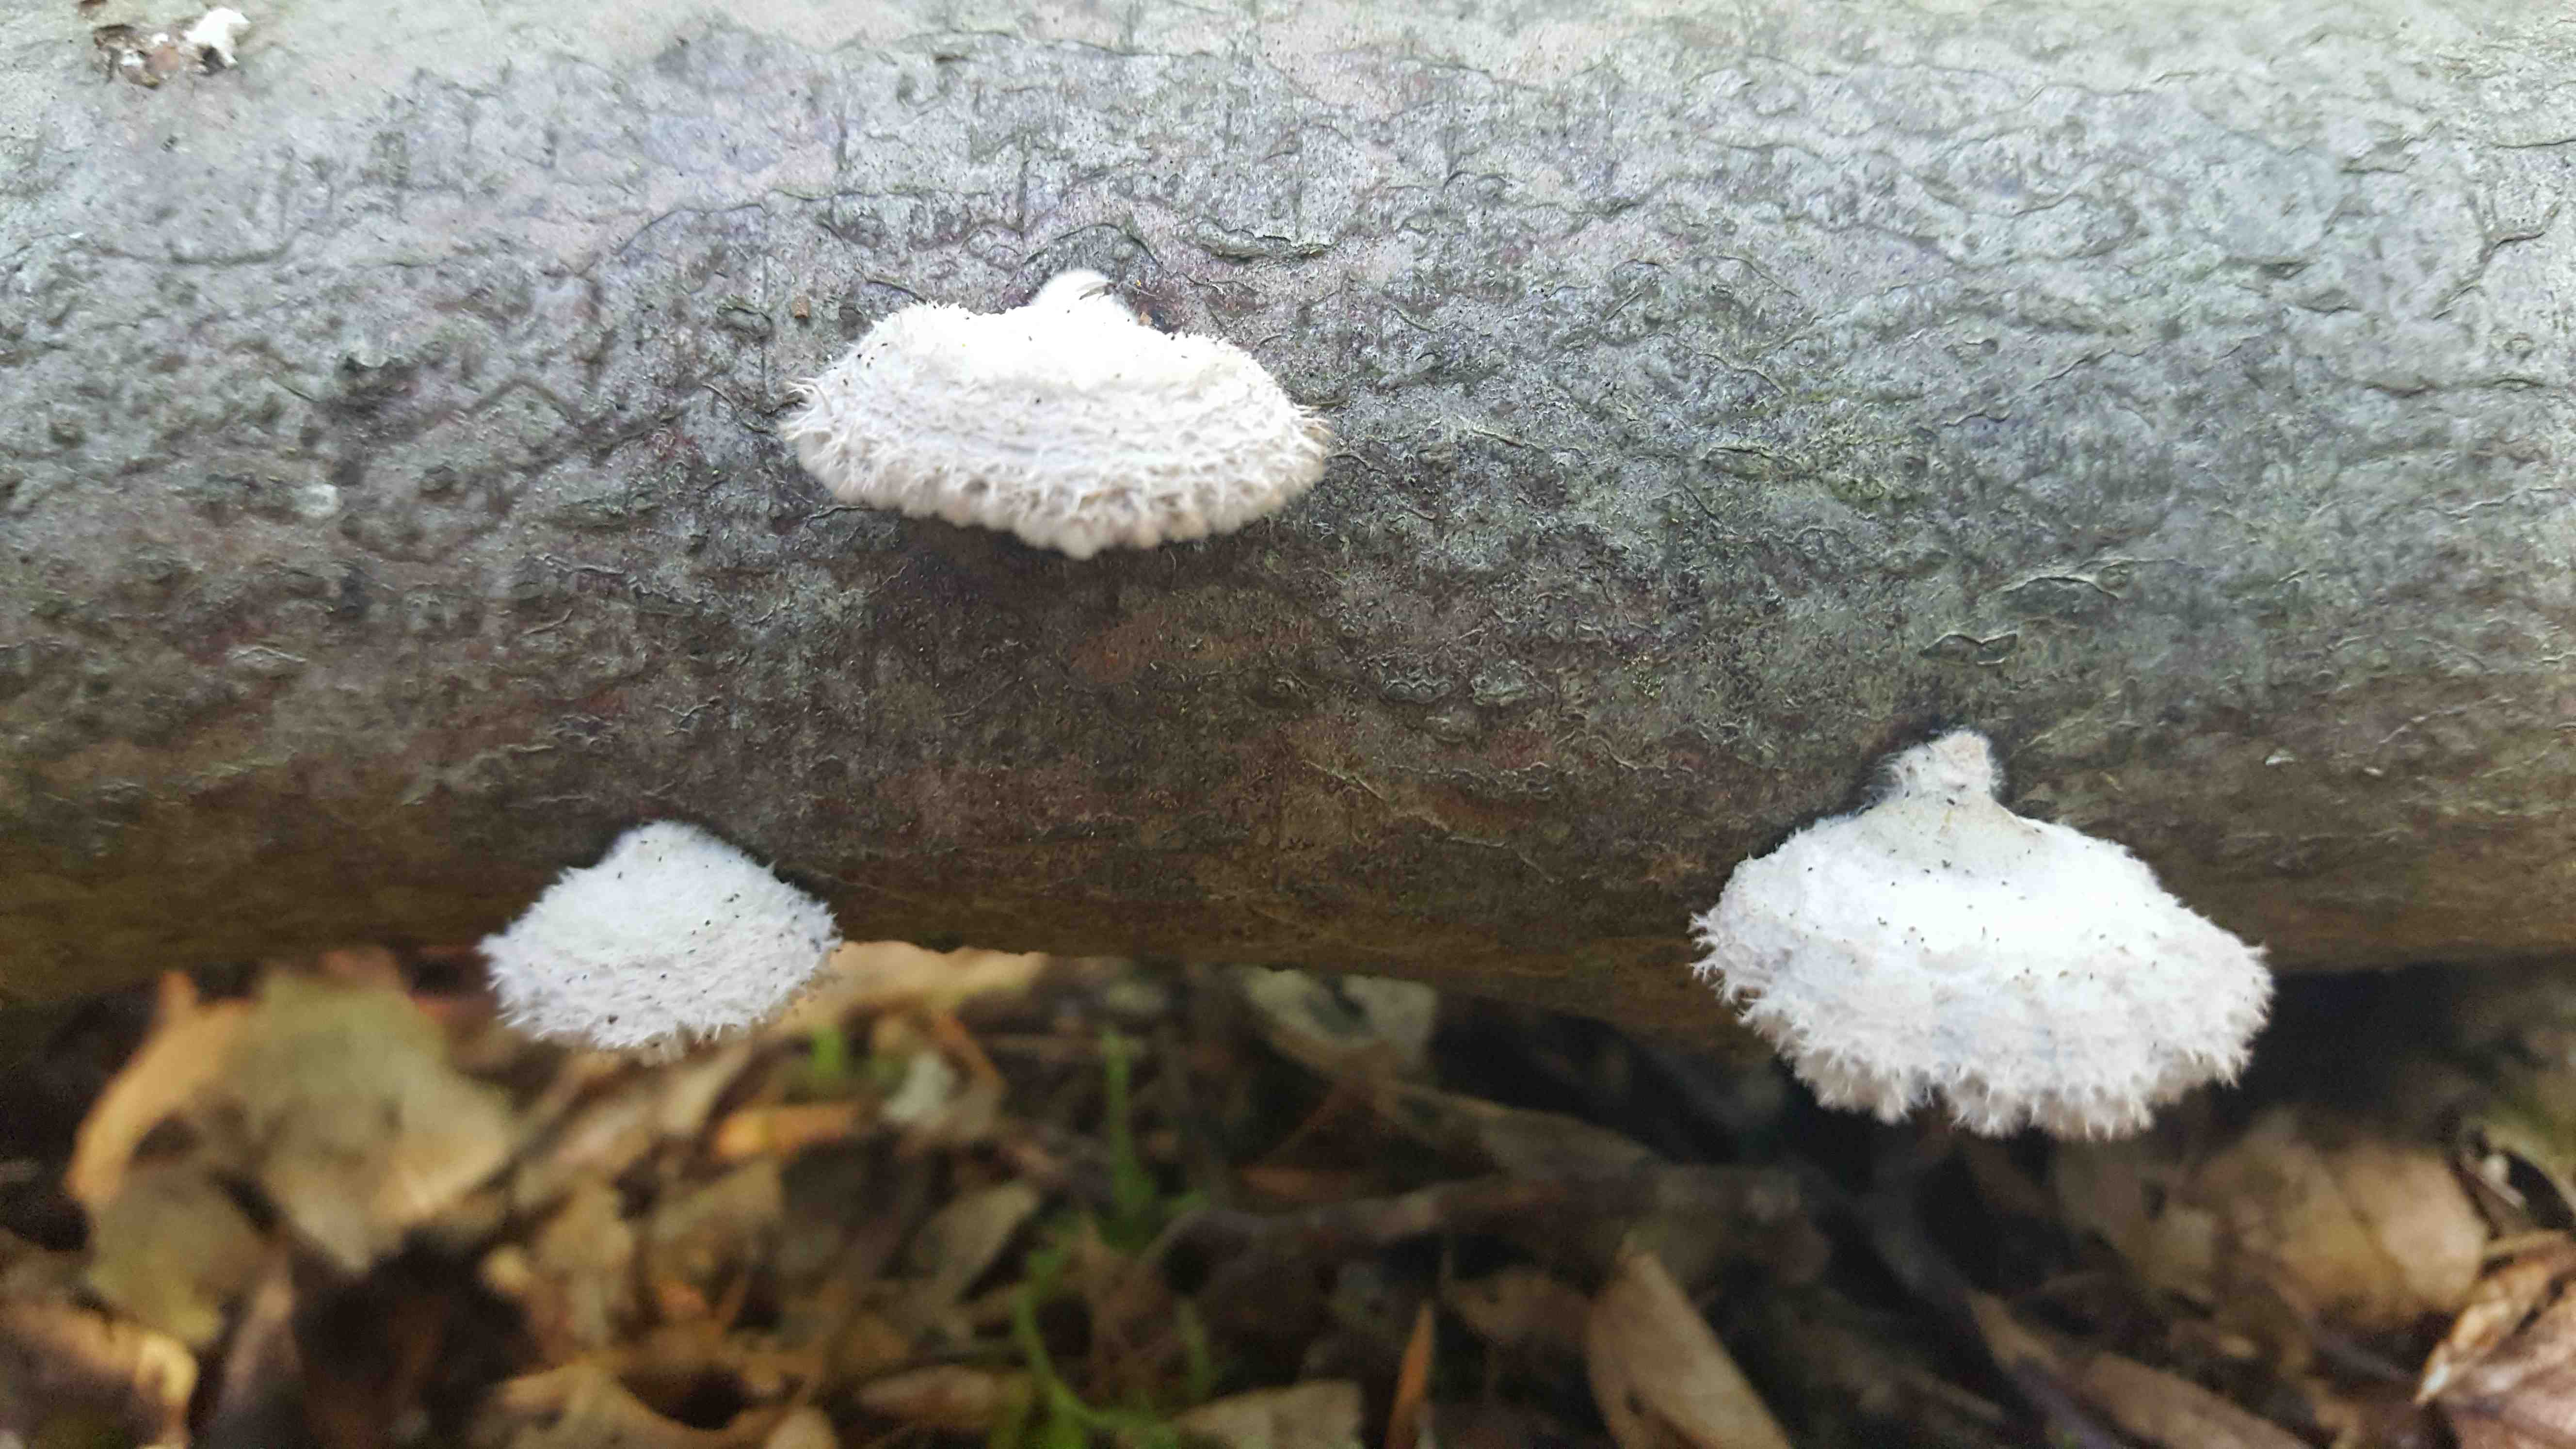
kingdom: Fungi
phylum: Basidiomycota
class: Agaricomycetes
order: Agaricales
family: Schizophyllaceae
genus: Schizophyllum
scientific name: Schizophyllum commune
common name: kløvblad
